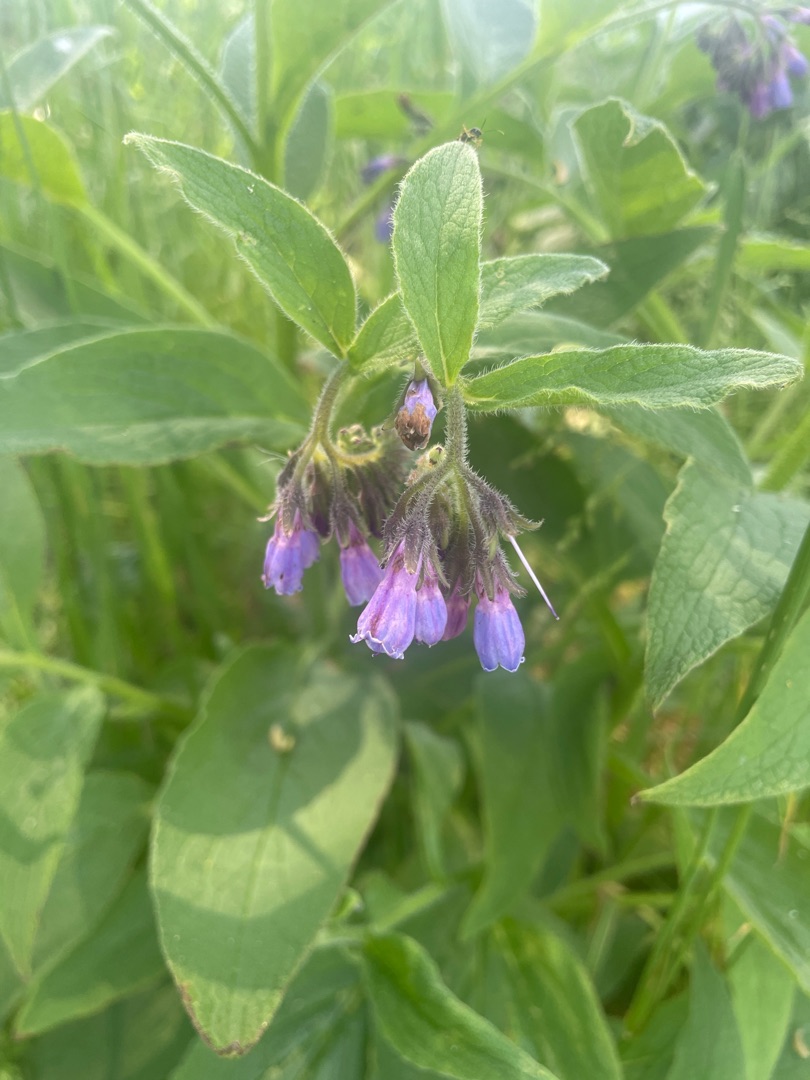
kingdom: Plantae
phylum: Tracheophyta
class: Magnoliopsida
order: Boraginales
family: Boraginaceae
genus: Symphytum
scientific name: Symphytum uplandicum
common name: Foder-kulsukker
